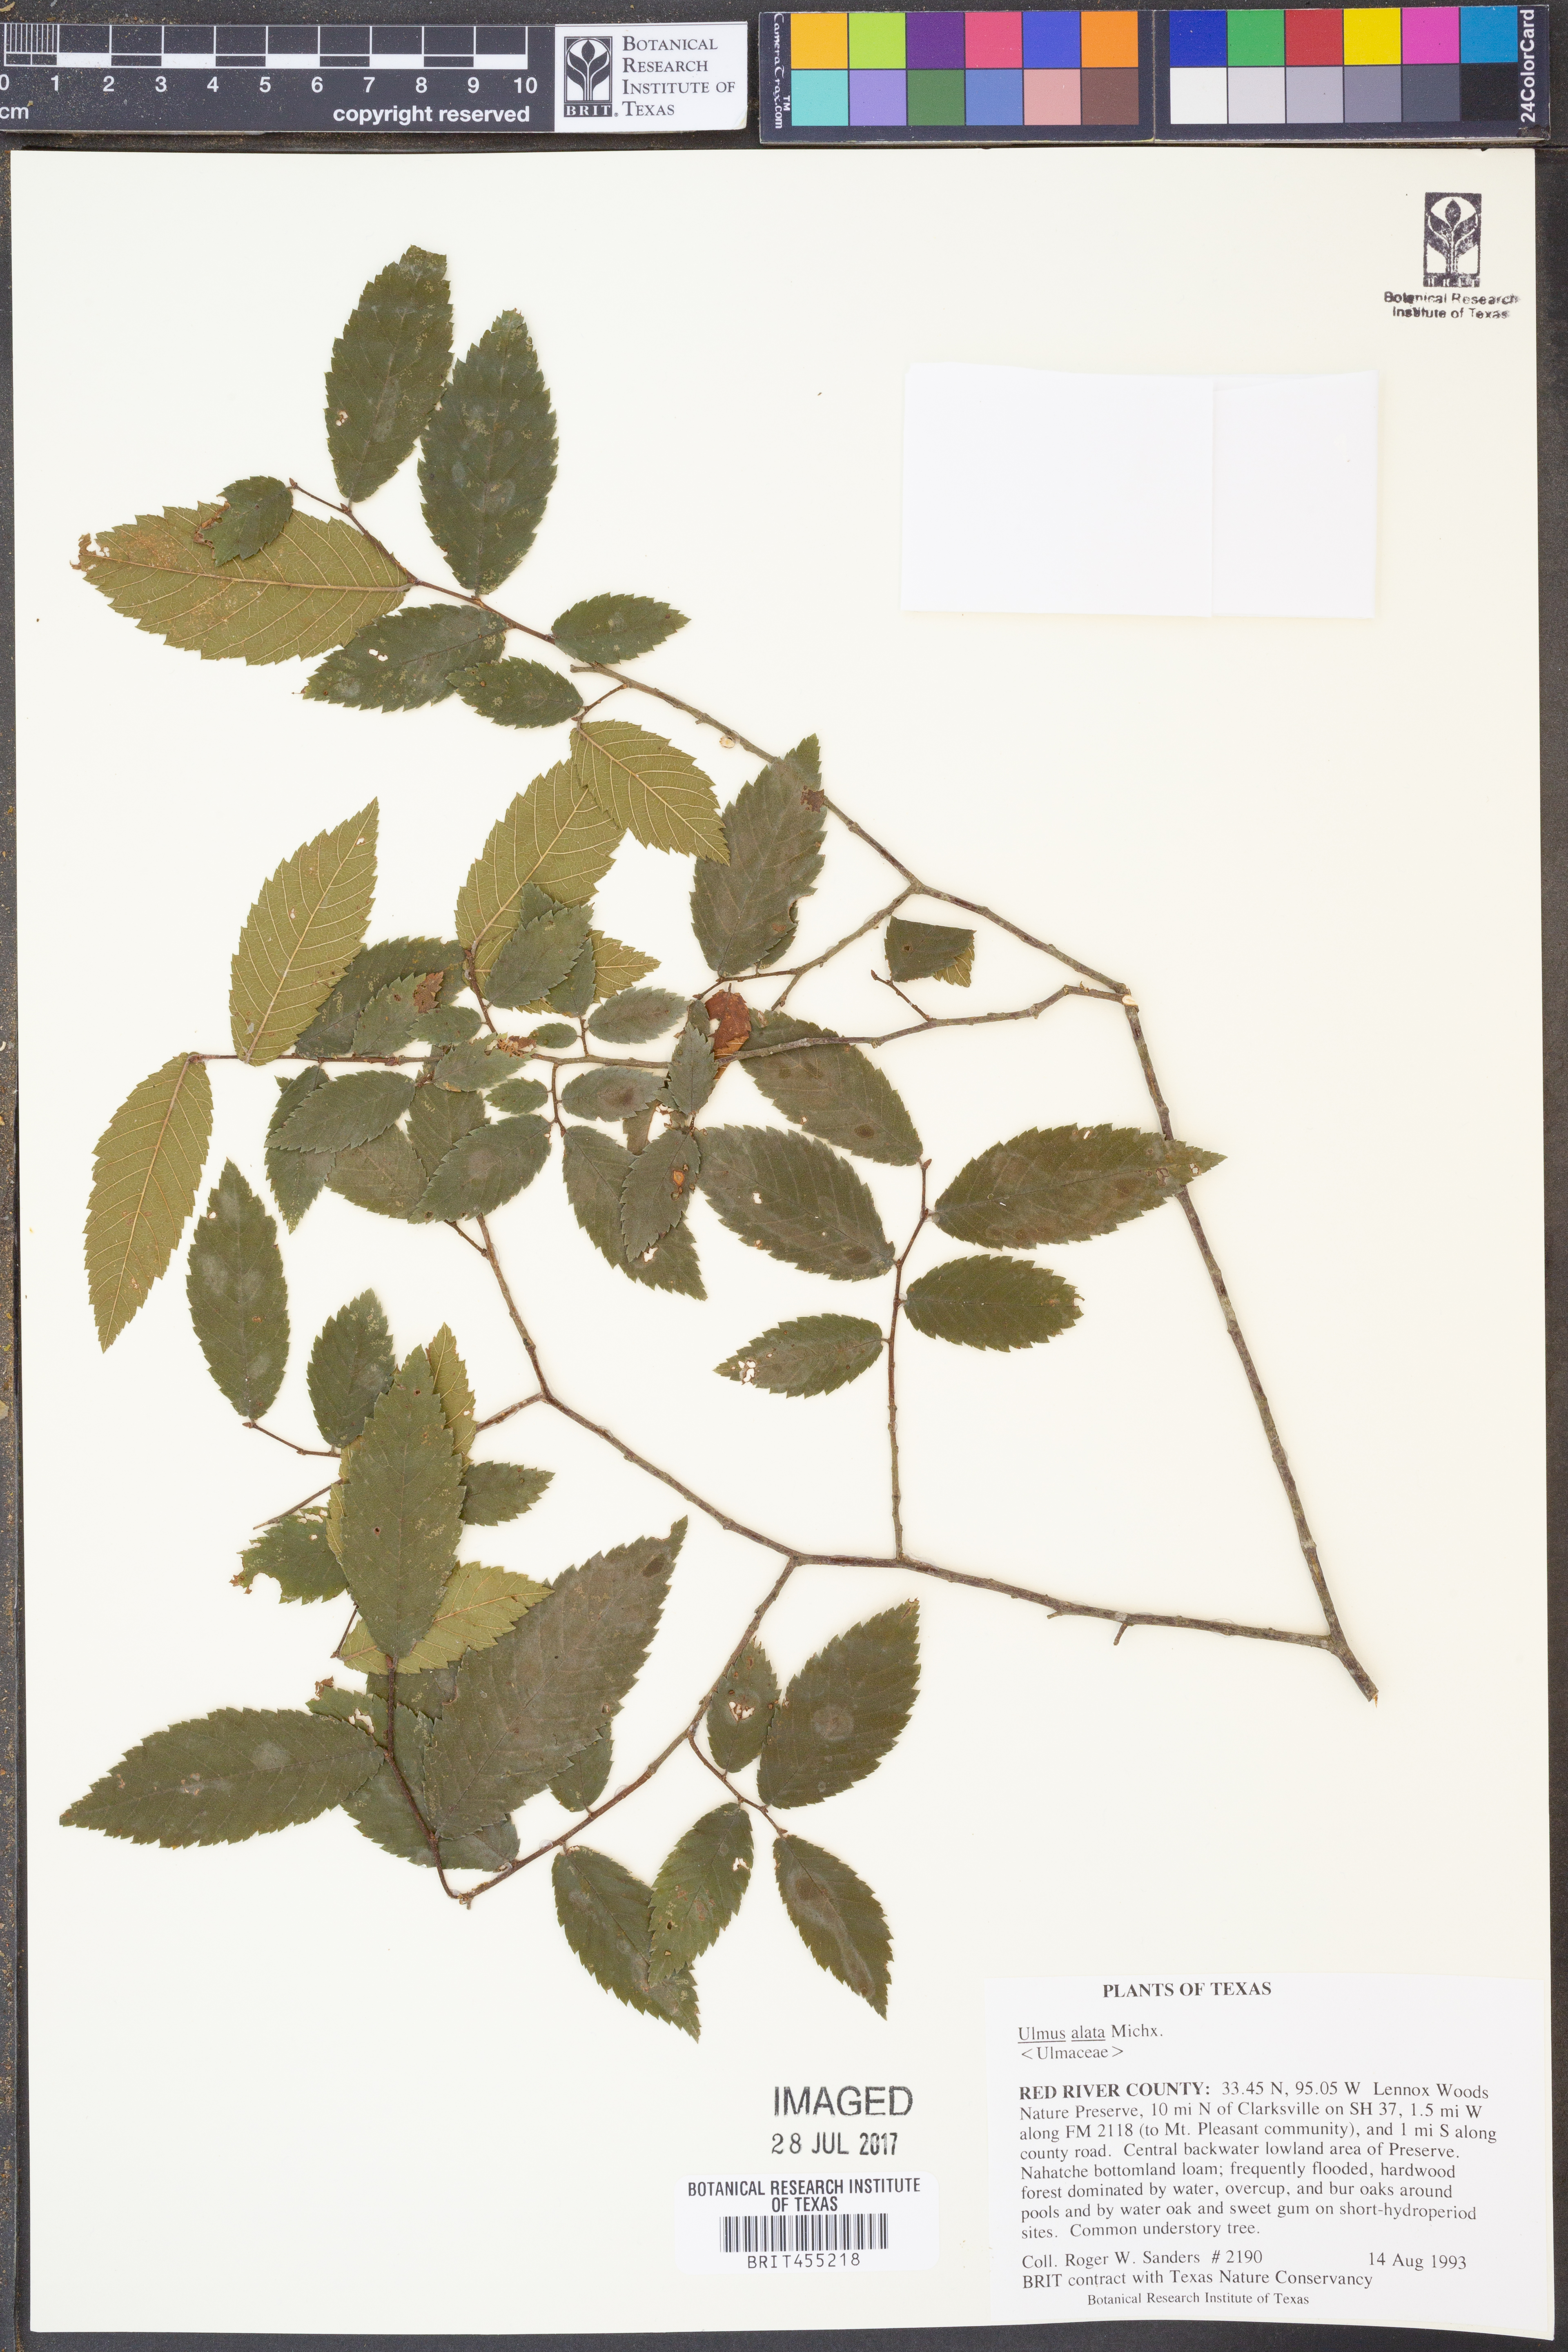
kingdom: Plantae
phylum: Tracheophyta
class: Magnoliopsida
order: Rosales
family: Ulmaceae
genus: Ulmus
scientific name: Ulmus alata
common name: Winged elm
